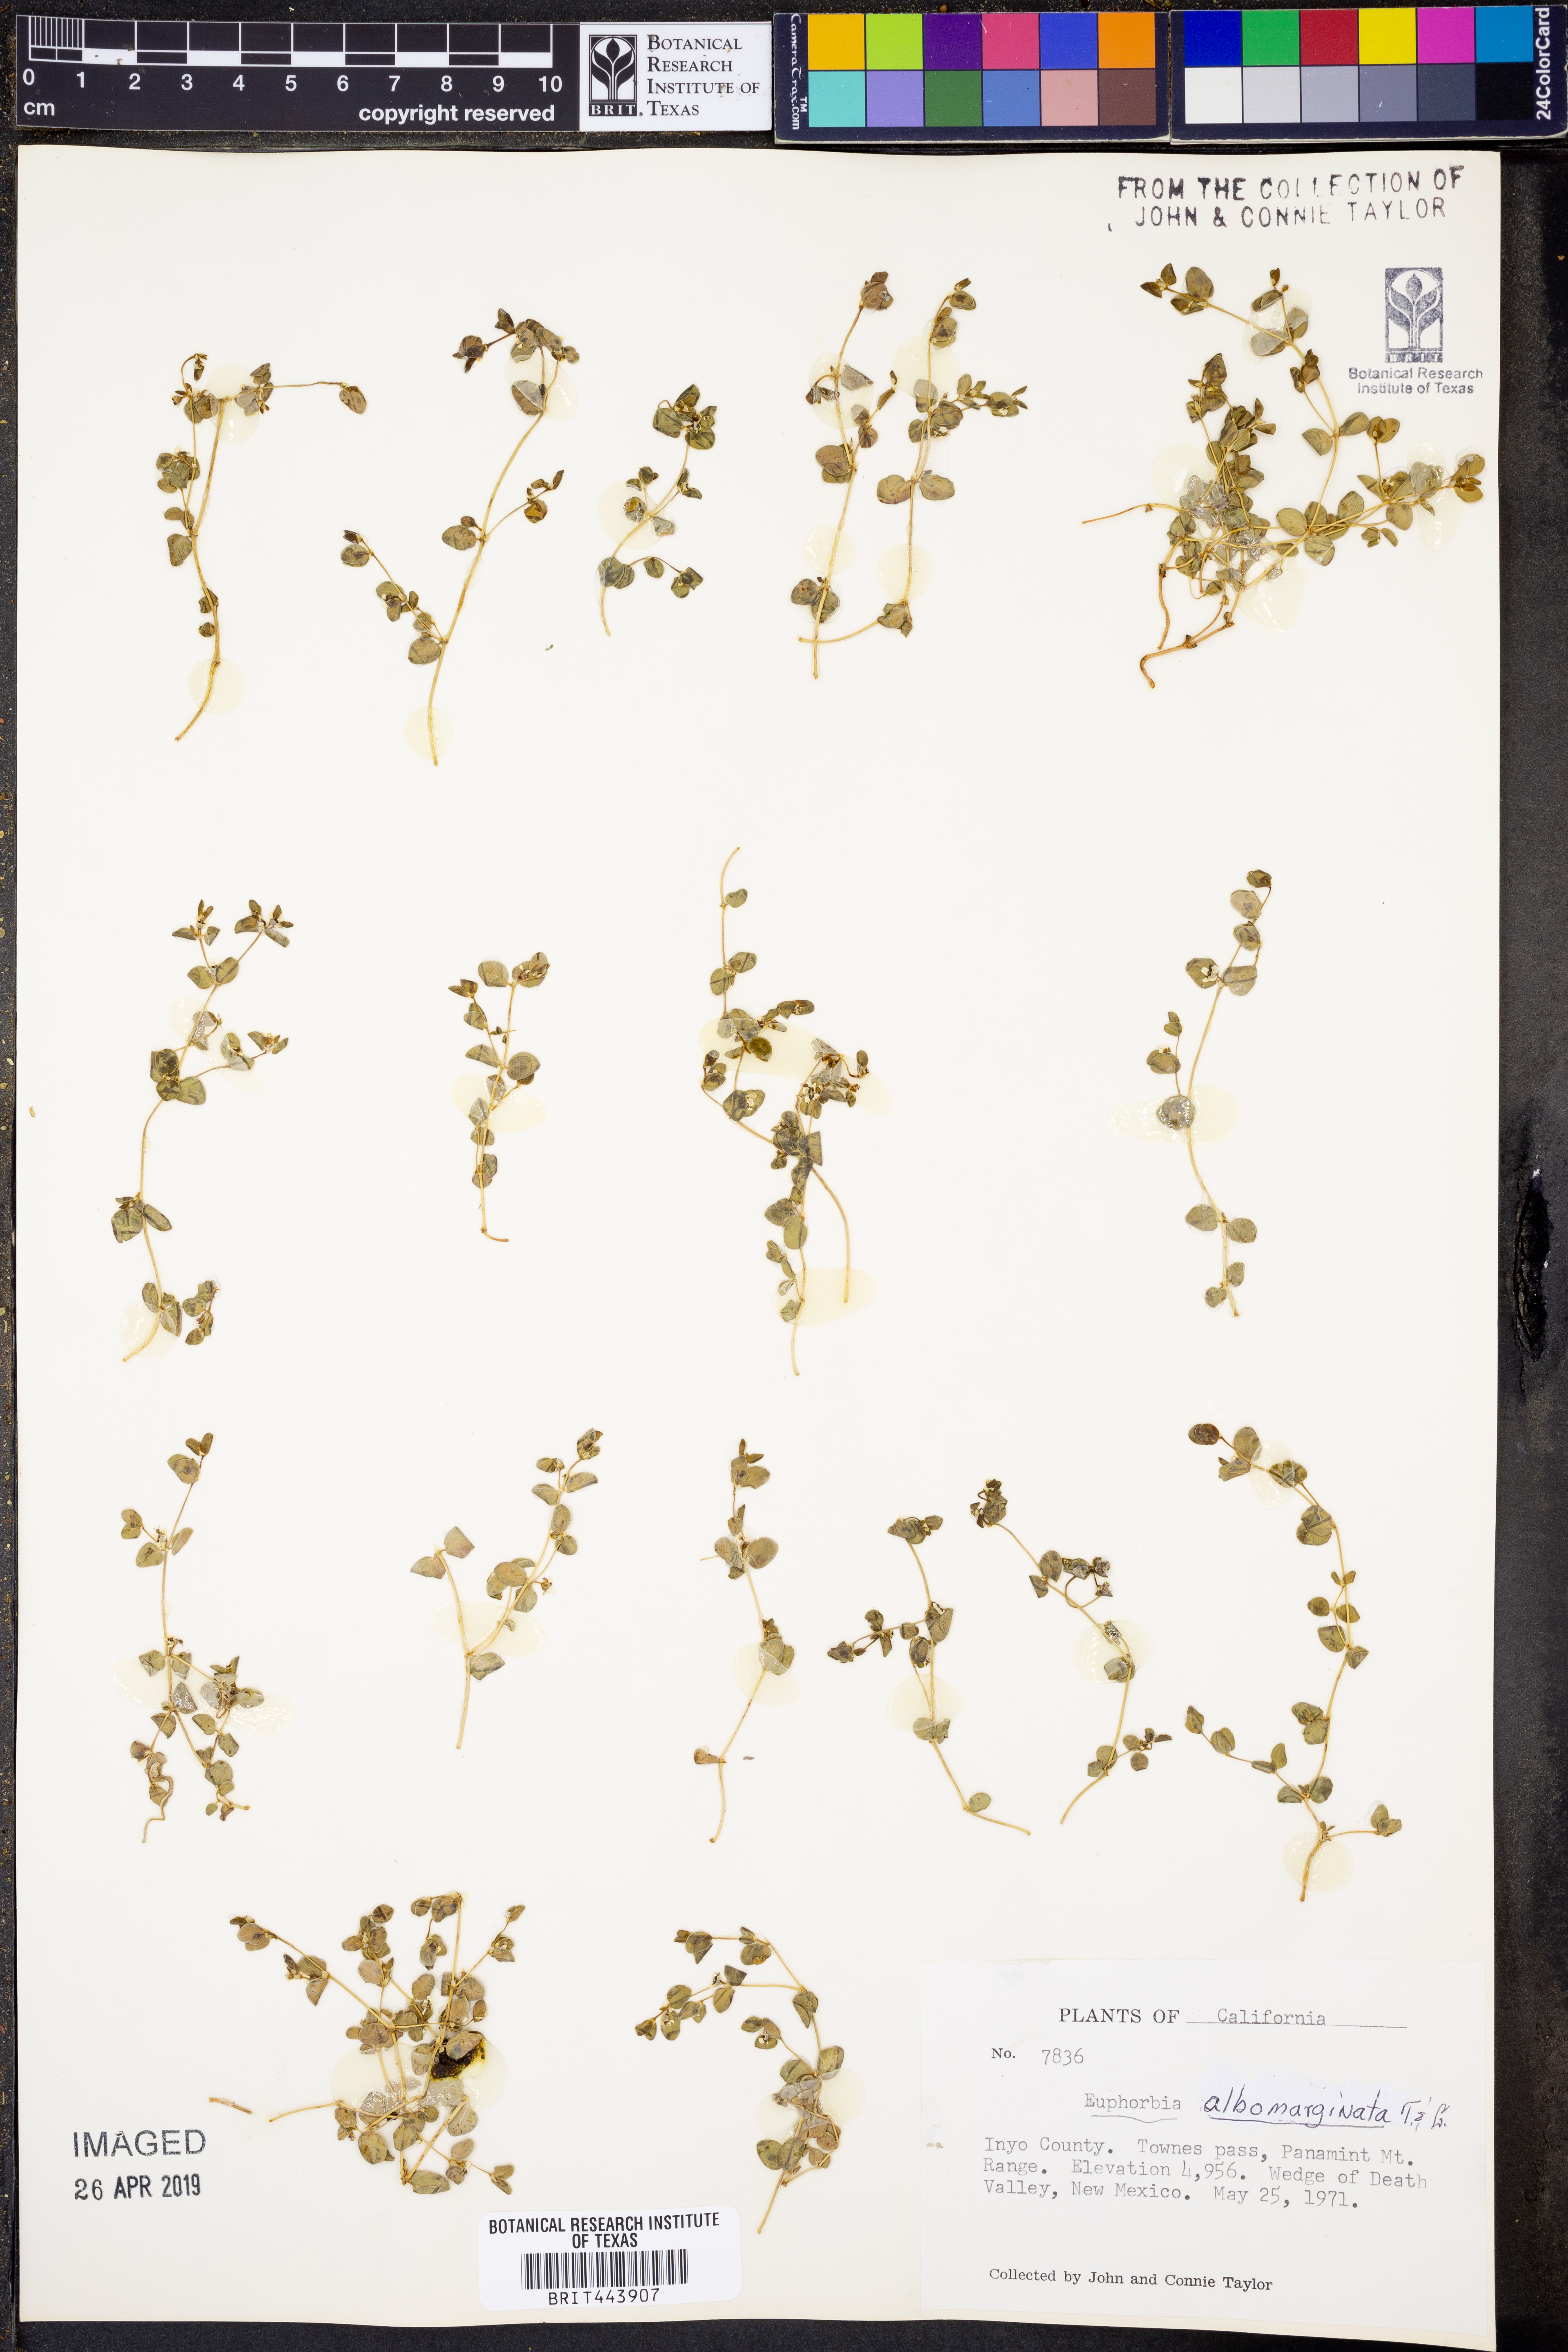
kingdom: Plantae
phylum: Tracheophyta
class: Magnoliopsida
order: Malpighiales
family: Euphorbiaceae
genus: Euphorbia
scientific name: Euphorbia albomarginata
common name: Whitemargin sandmat
